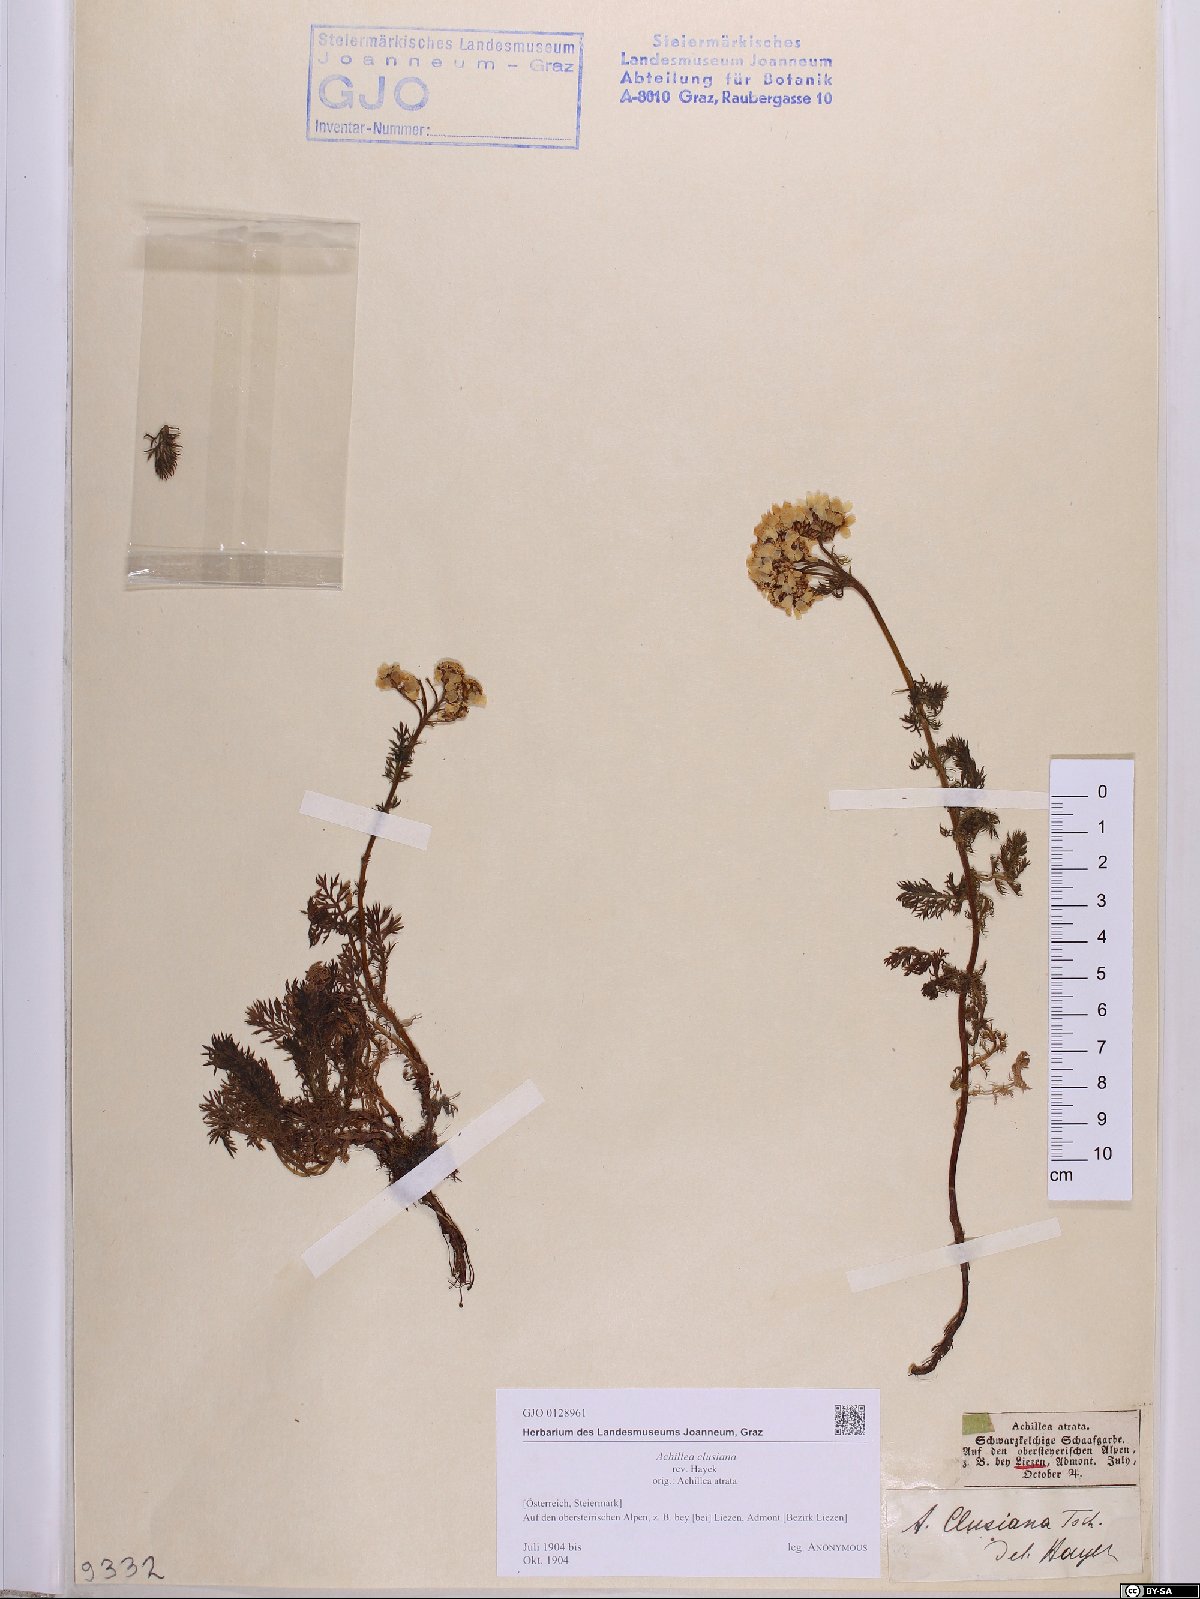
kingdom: Plantae
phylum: Tracheophyta
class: Magnoliopsida
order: Asterales
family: Asteraceae
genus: Achillea
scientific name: Achillea clusiana
